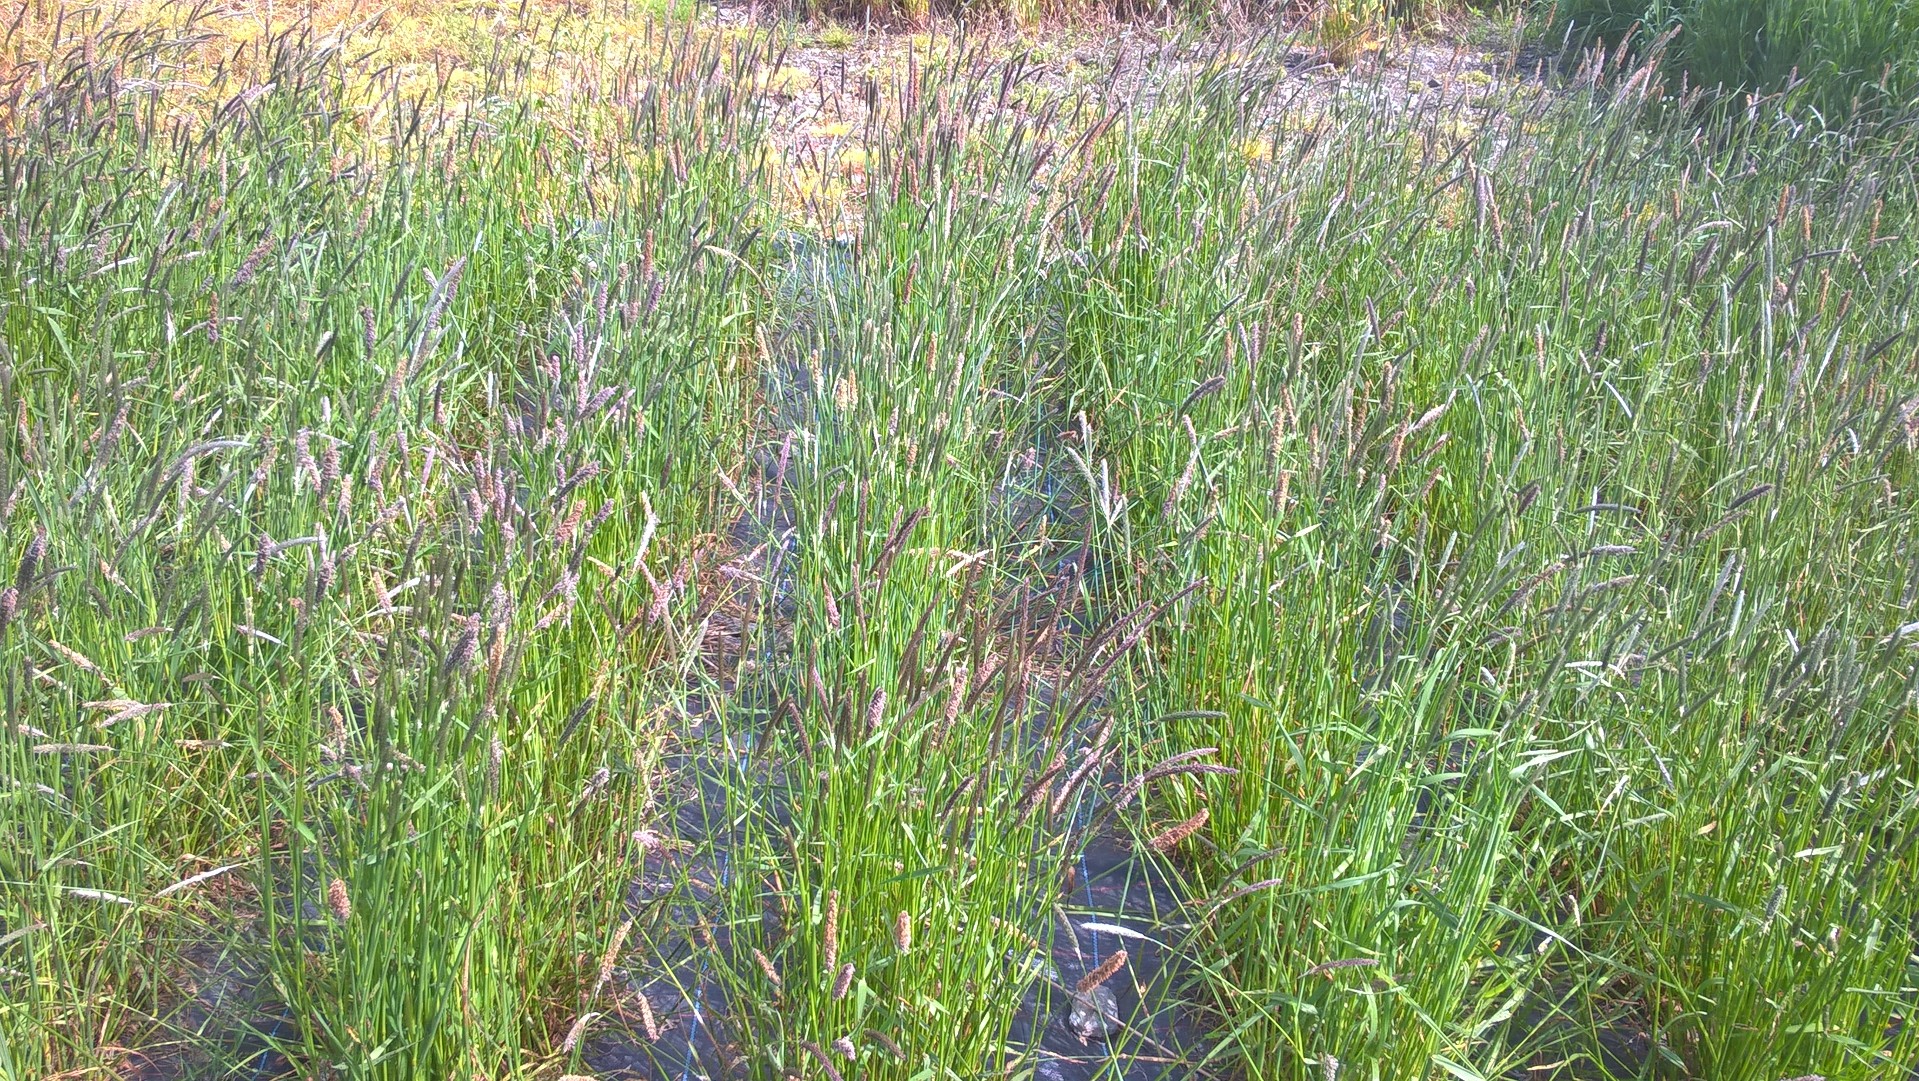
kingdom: Plantae
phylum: Tracheophyta
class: Liliopsida
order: Poales
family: Poaceae
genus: Alopecurus
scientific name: Alopecurus pratensis
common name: Meadow foxtail
